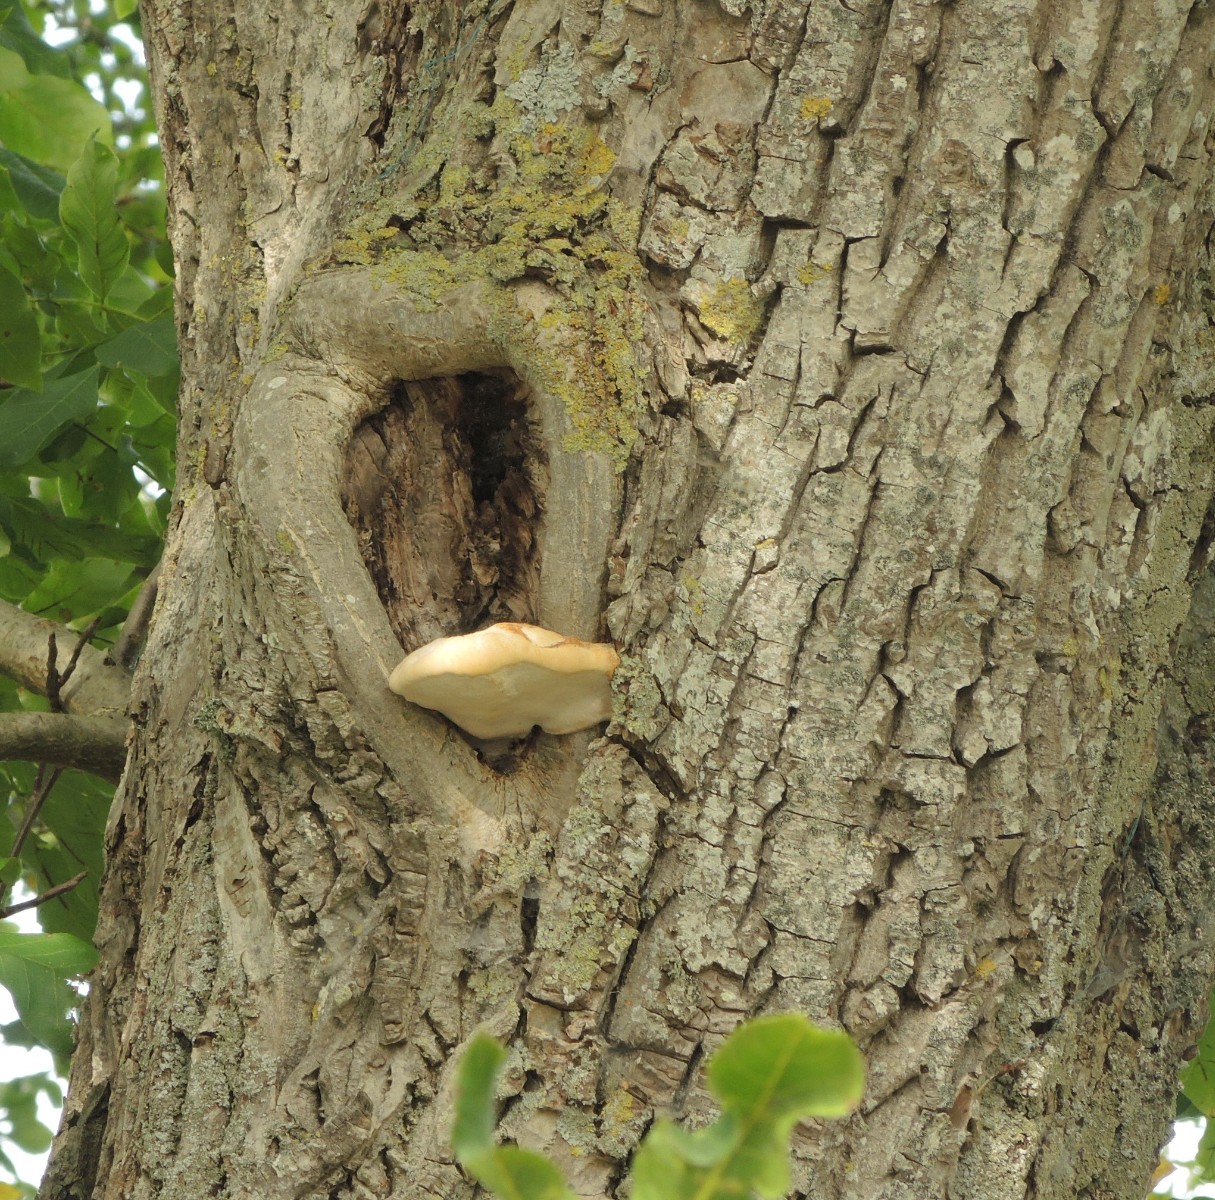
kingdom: Fungi
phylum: Basidiomycota
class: Agaricomycetes
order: Polyporales
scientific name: Polyporales
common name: poresvampordenen
